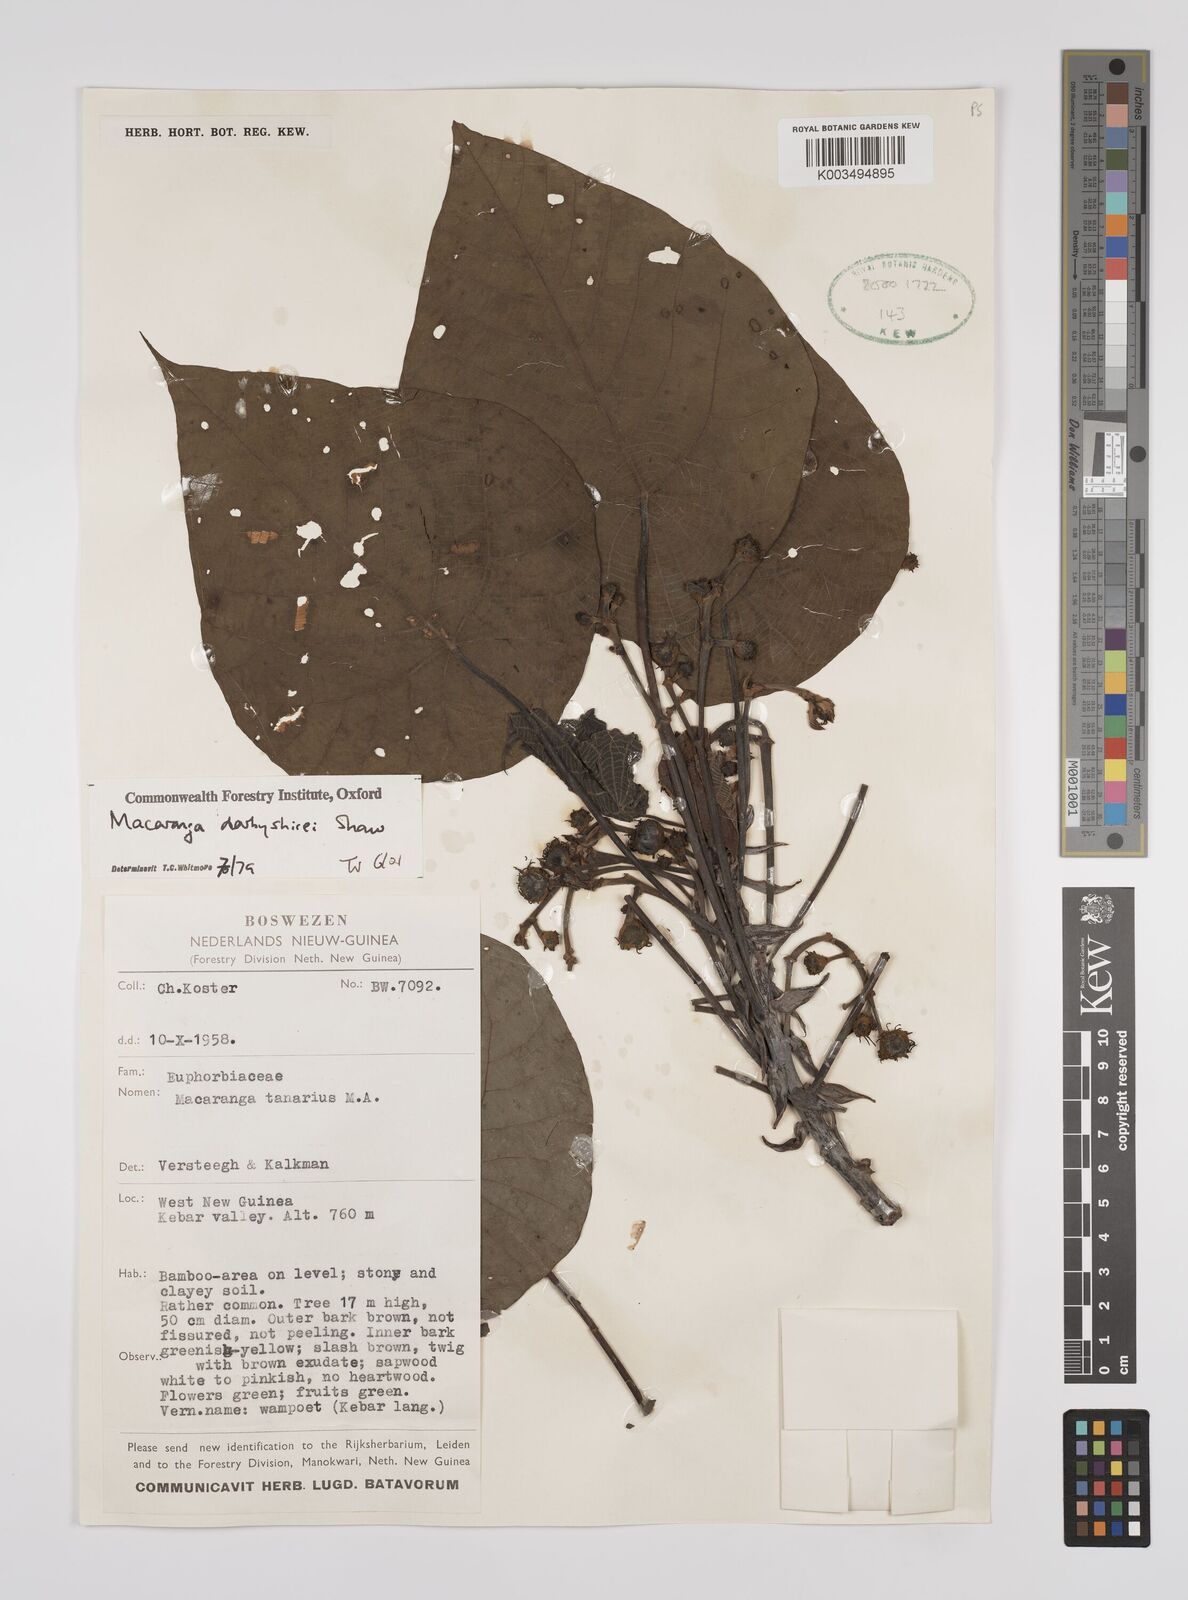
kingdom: Plantae
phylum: Tracheophyta
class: Magnoliopsida
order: Malpighiales
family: Euphorbiaceae
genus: Macaranga
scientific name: Macaranga darbyshirei
